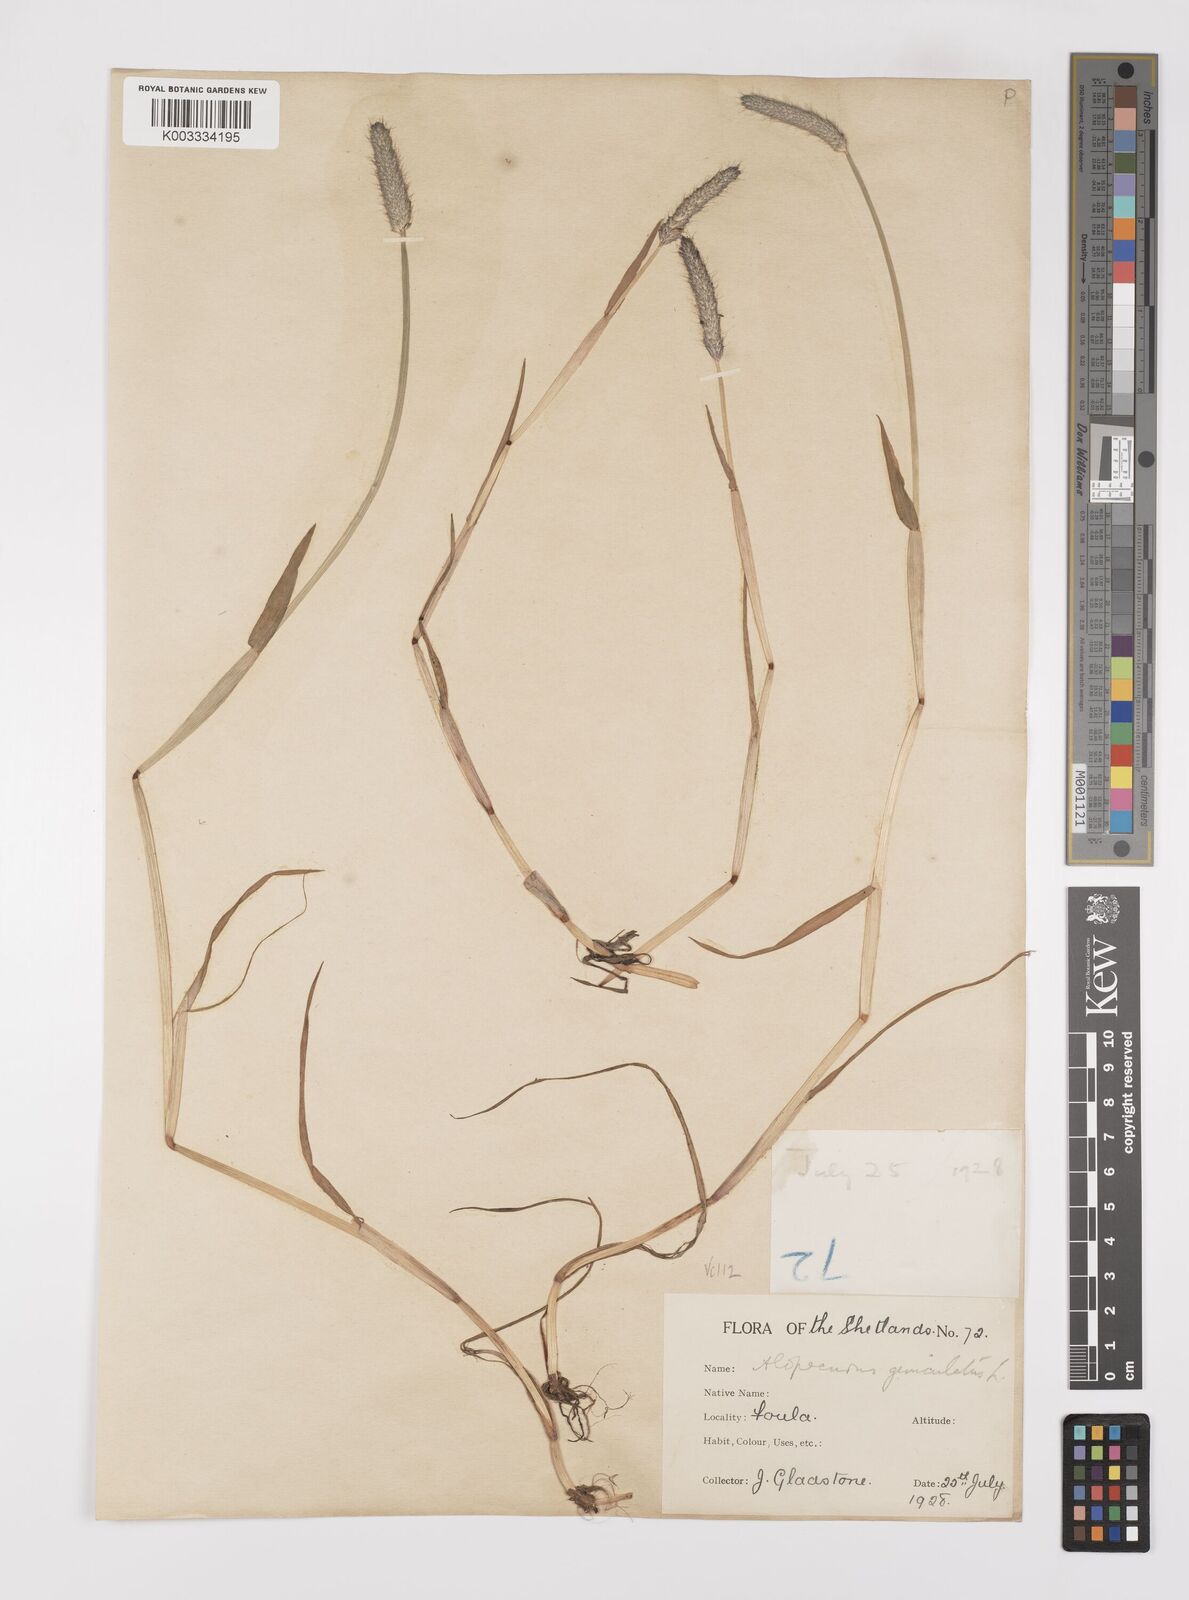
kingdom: Plantae
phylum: Tracheophyta
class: Liliopsida
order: Poales
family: Poaceae
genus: Alopecurus
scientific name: Alopecurus geniculatus
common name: Water foxtail
